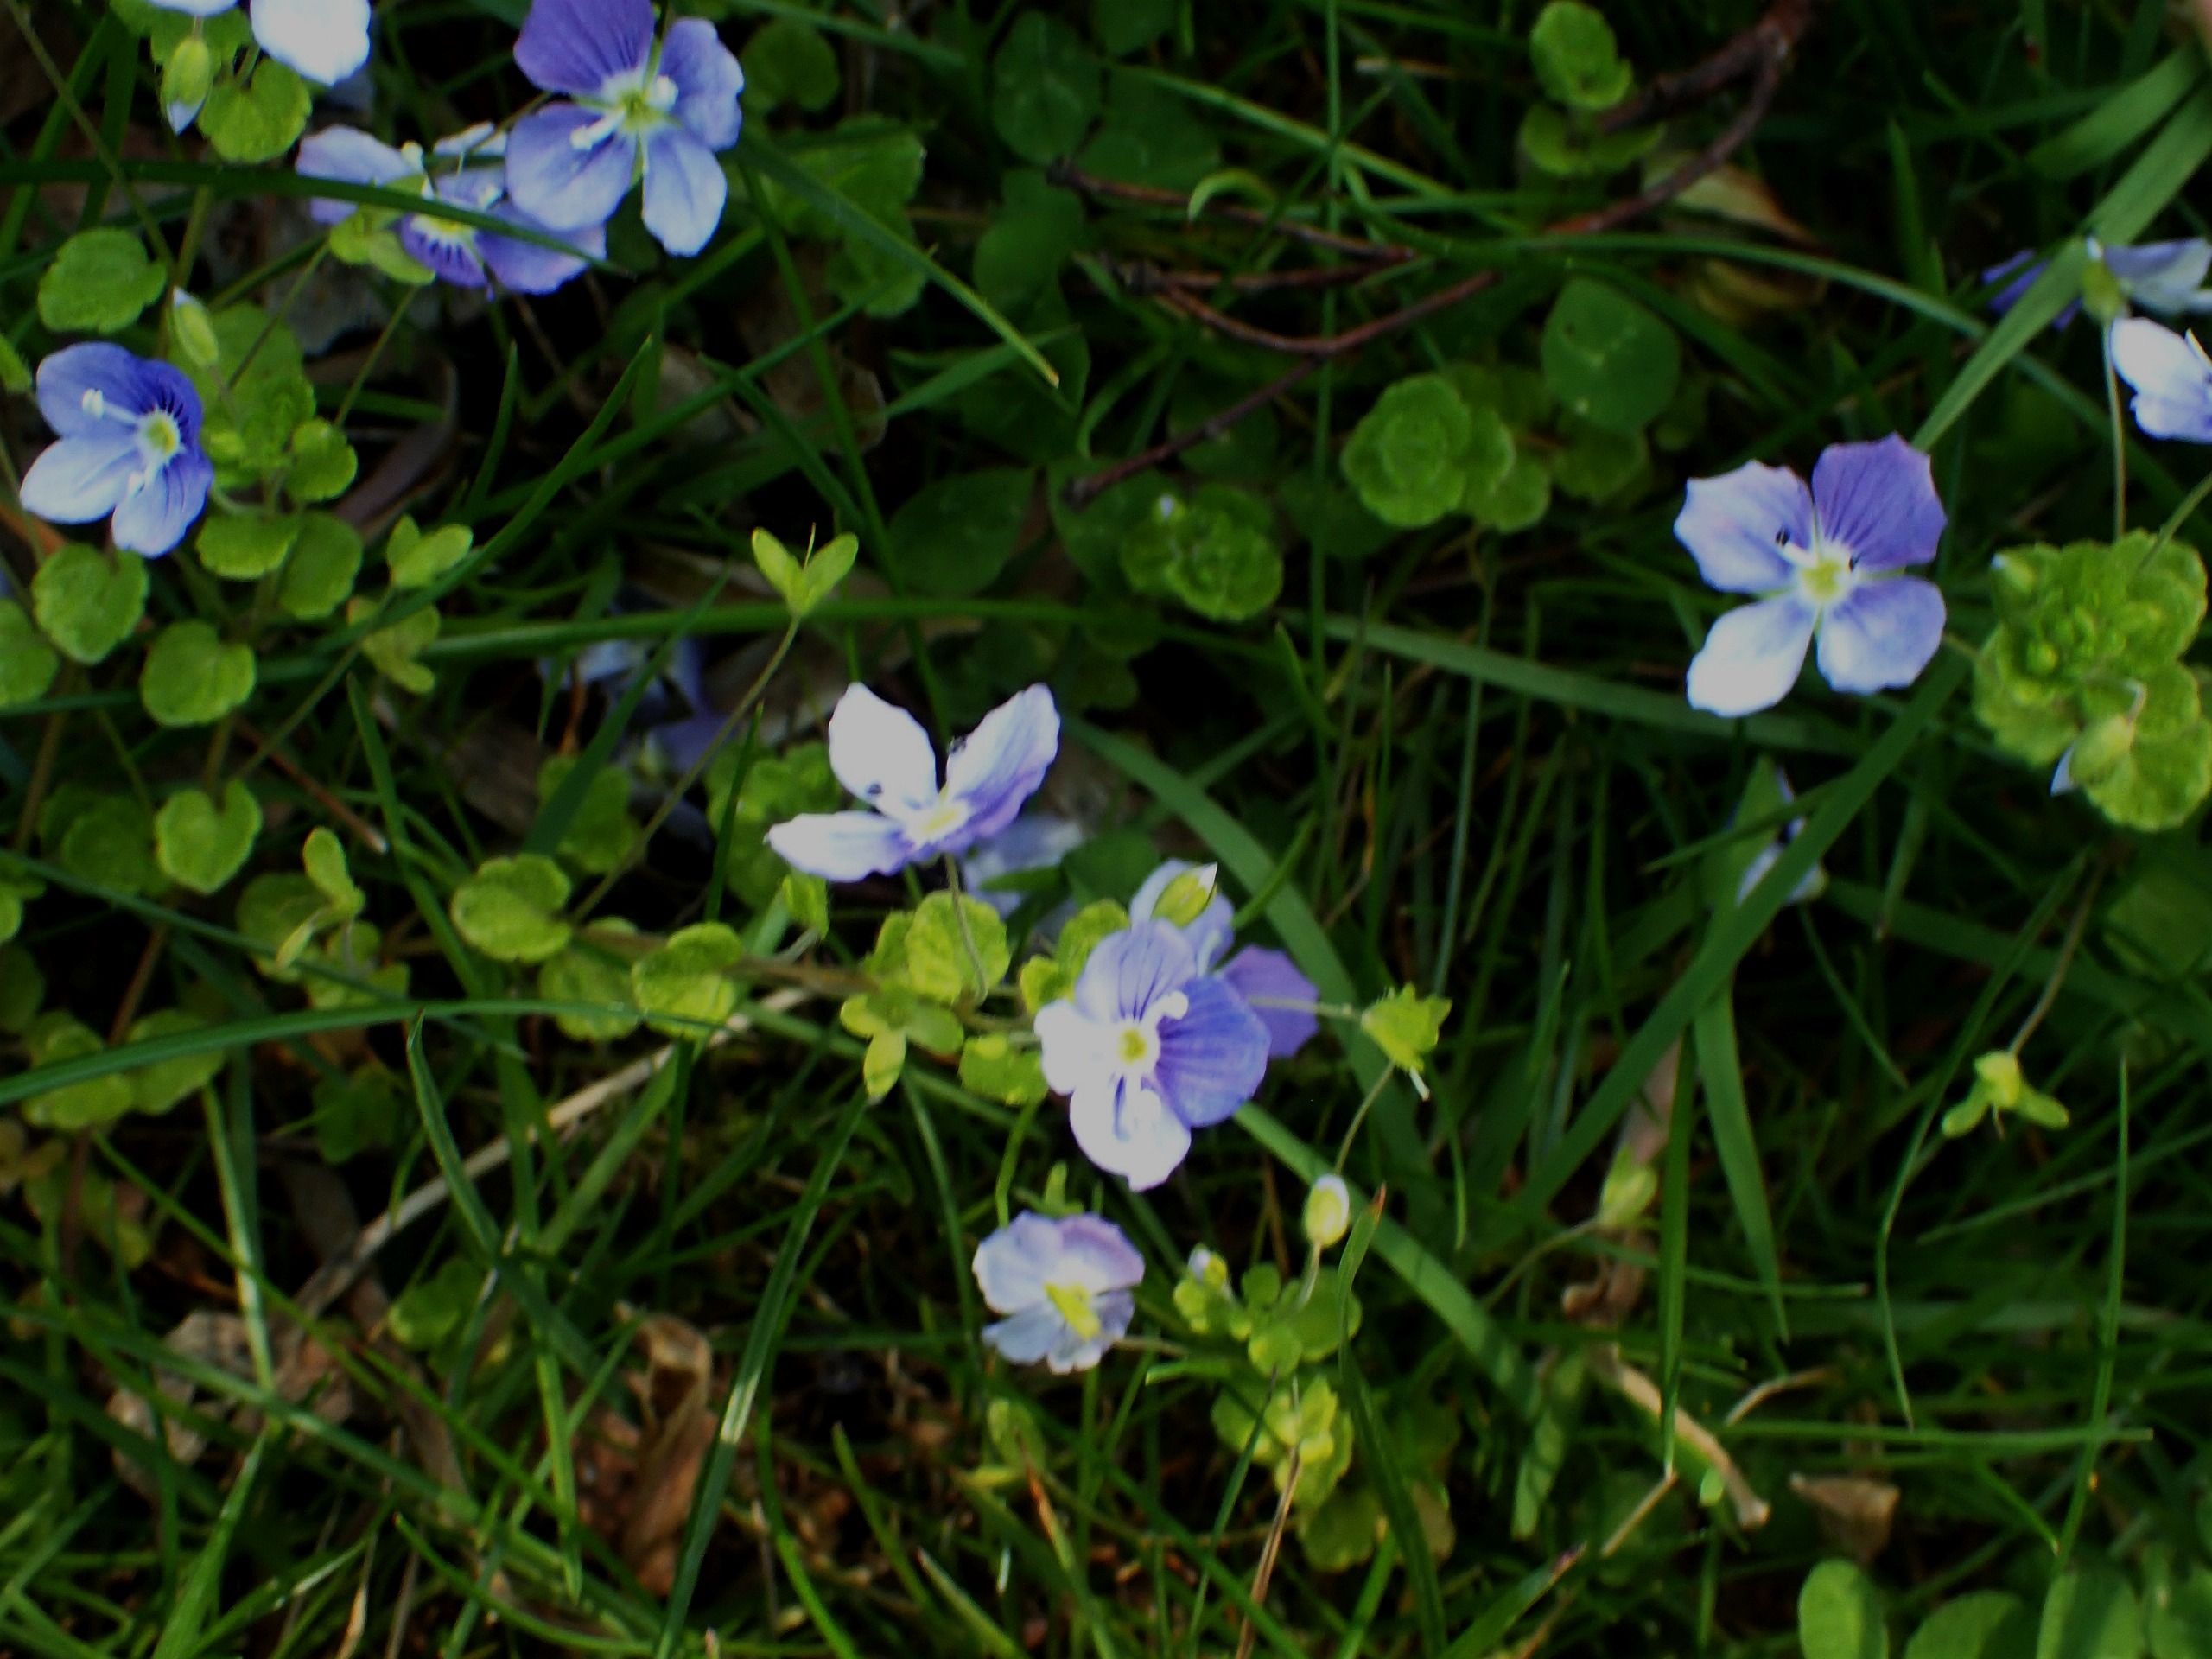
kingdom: Plantae
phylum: Tracheophyta
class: Magnoliopsida
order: Lamiales
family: Plantaginaceae
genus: Veronica
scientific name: Veronica filiformis
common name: Tråd-ærenpris
